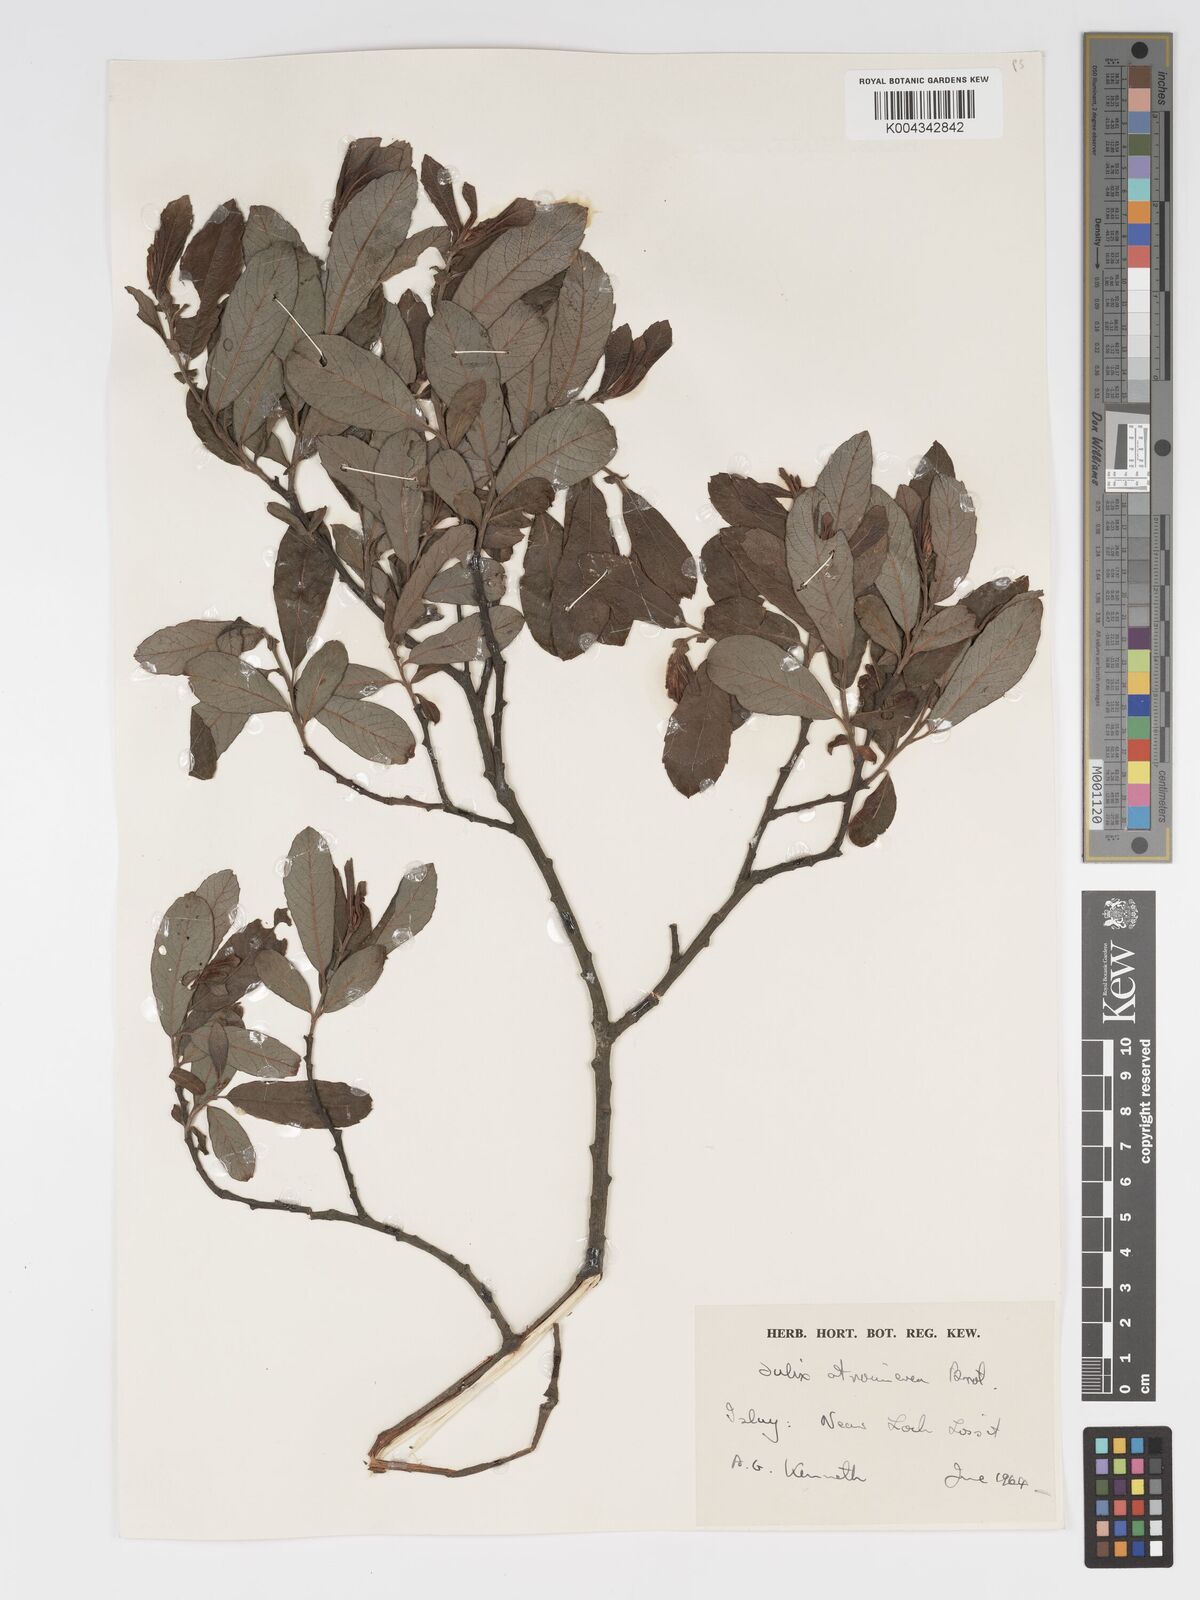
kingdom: Plantae
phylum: Tracheophyta
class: Magnoliopsida
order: Malpighiales
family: Salicaceae
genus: Salix
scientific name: Salix atrocinerea
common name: Rusty willow
